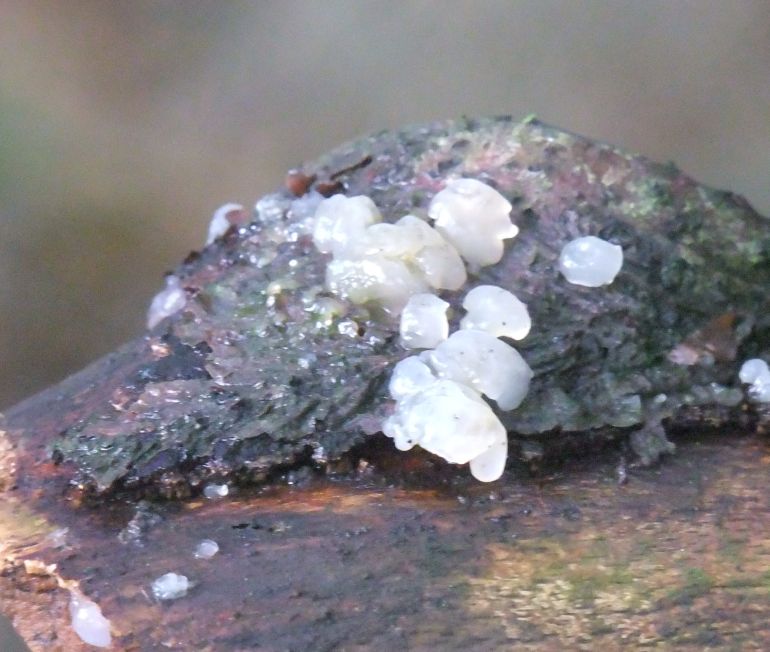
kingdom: Fungi
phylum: Basidiomycota
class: Agaricomycetes
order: Auriculariales
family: Hyaloriaceae
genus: Myxarium
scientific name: Myxarium nucleatum
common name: klar bævretop
